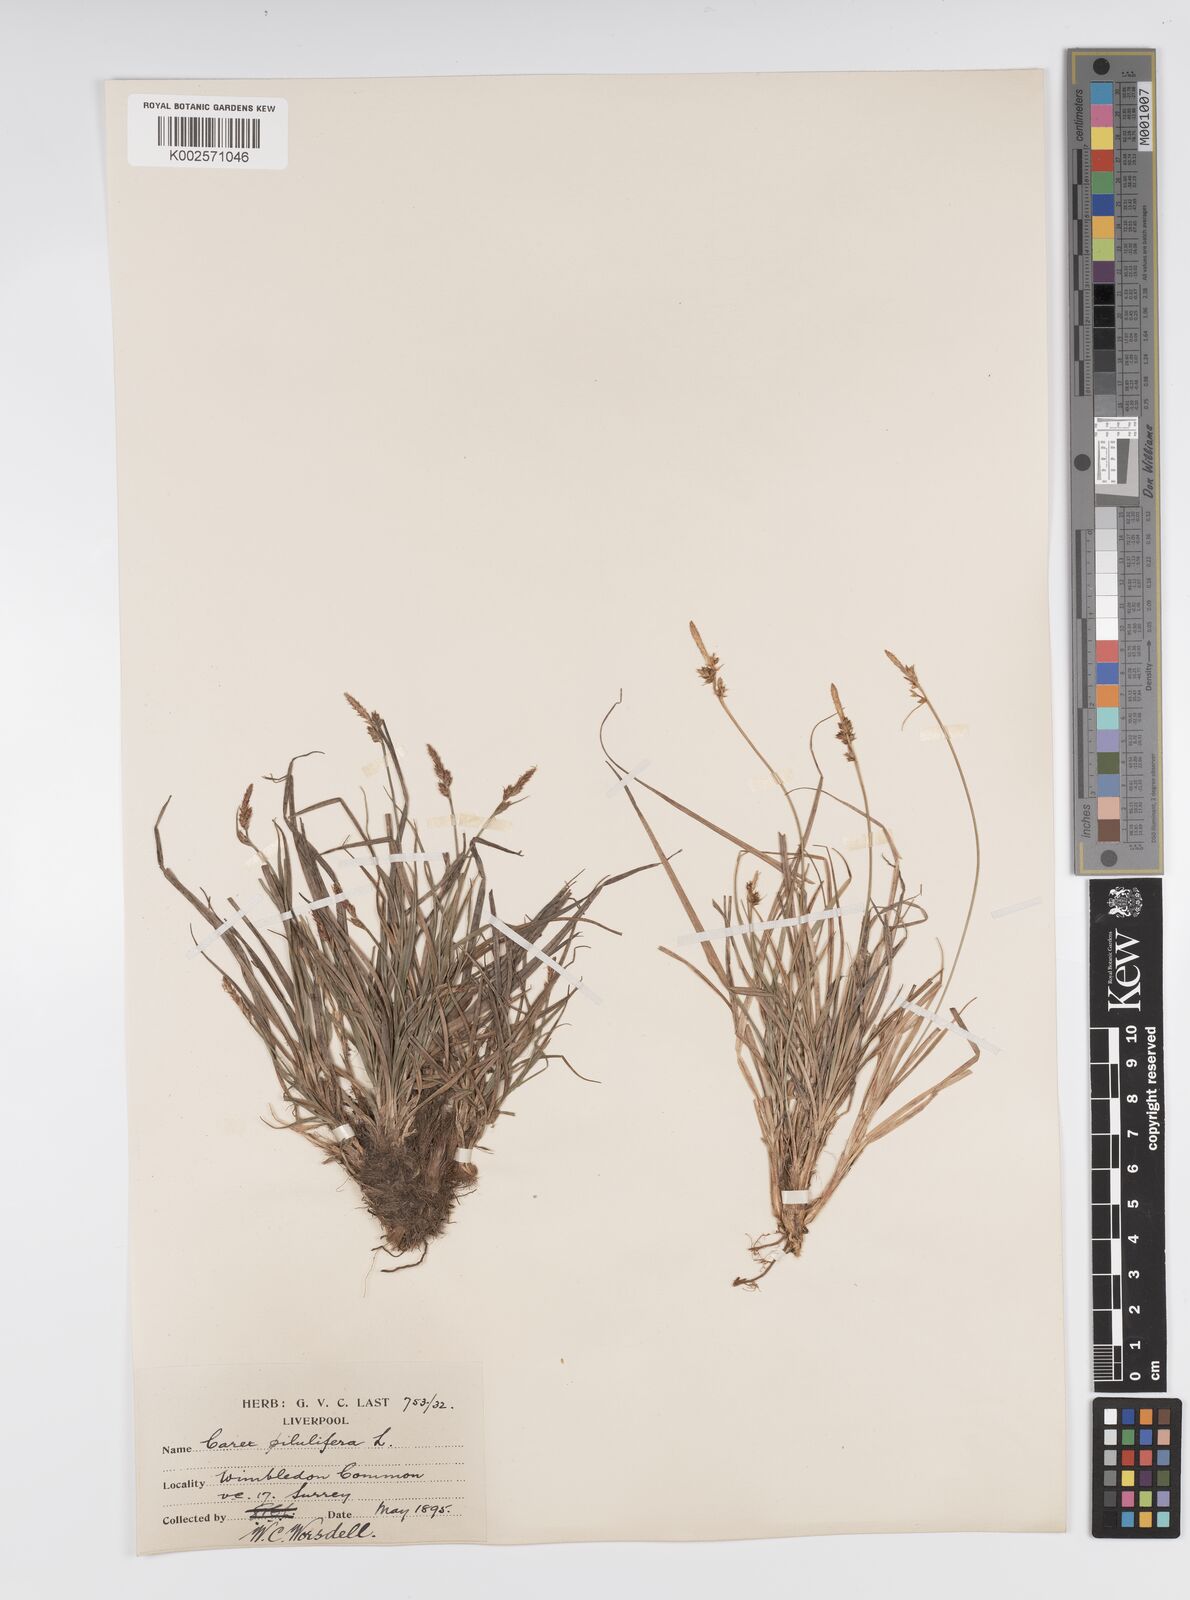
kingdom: Plantae
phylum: Tracheophyta
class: Liliopsida
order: Poales
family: Cyperaceae
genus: Carex
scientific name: Carex pilulifera
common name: Pill sedge
